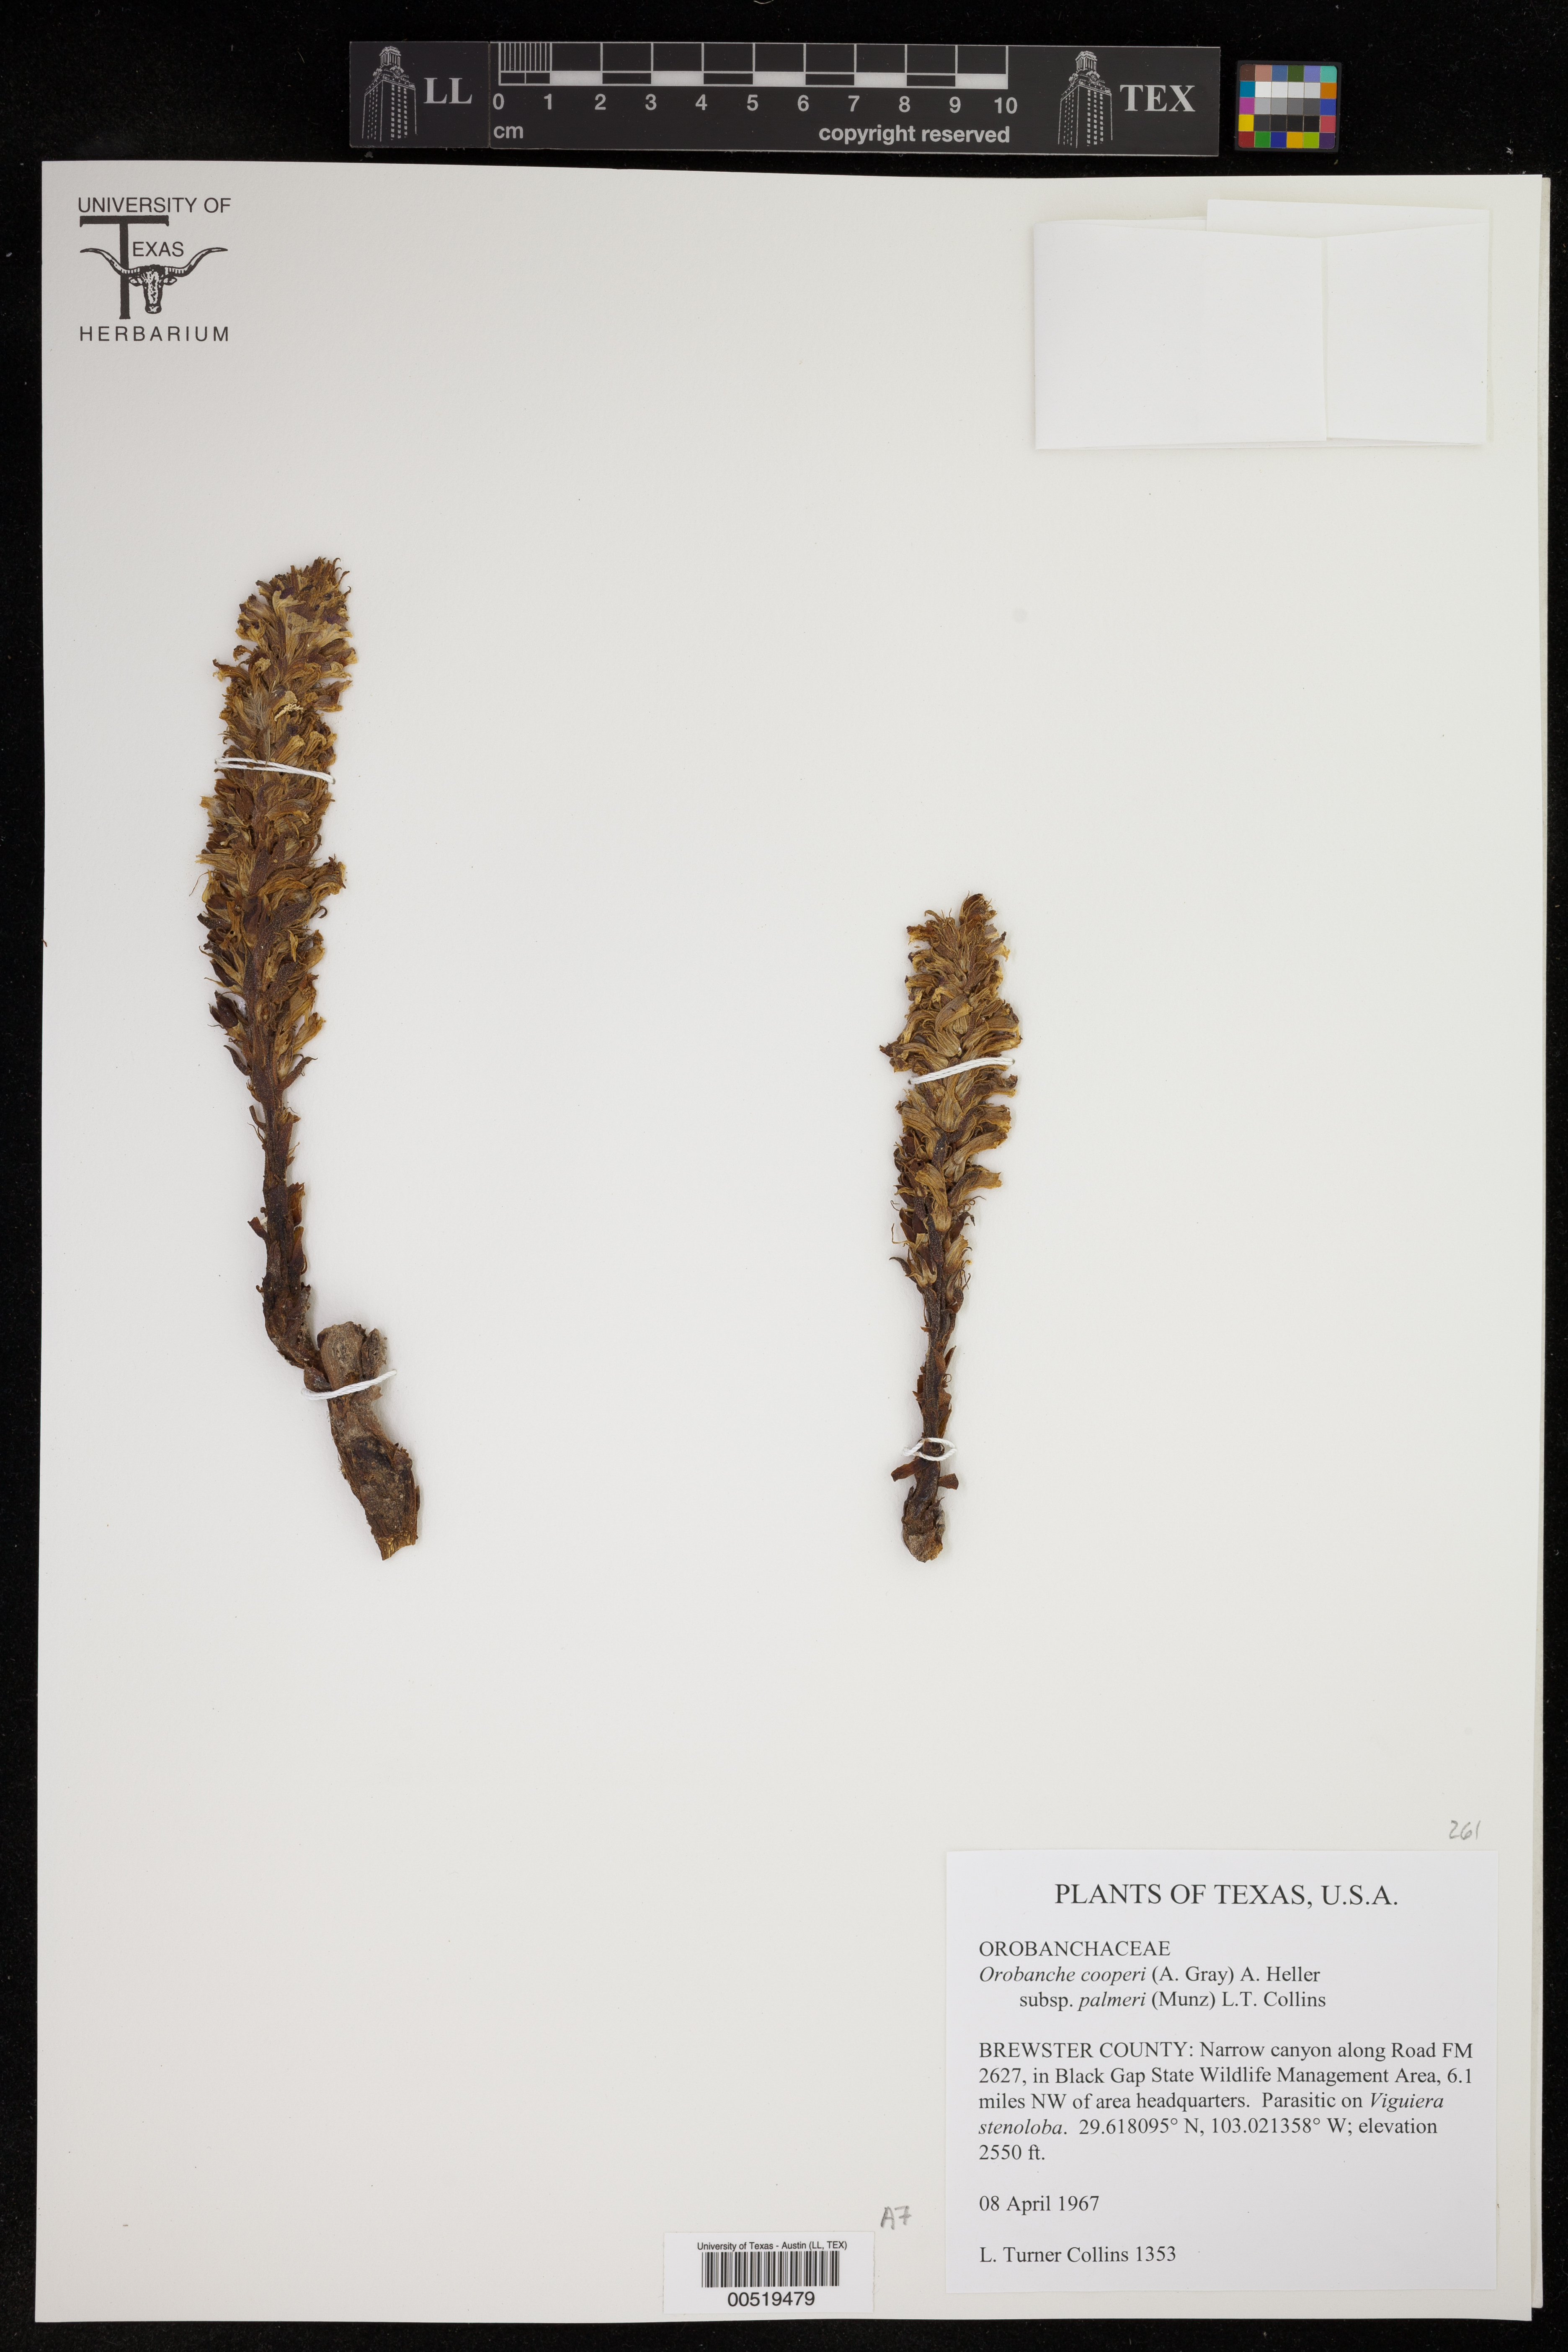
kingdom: Plantae
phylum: Tracheophyta
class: Magnoliopsida
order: Lamiales
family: Orobanchaceae
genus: Aphyllon
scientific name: Aphyllon cooperi
